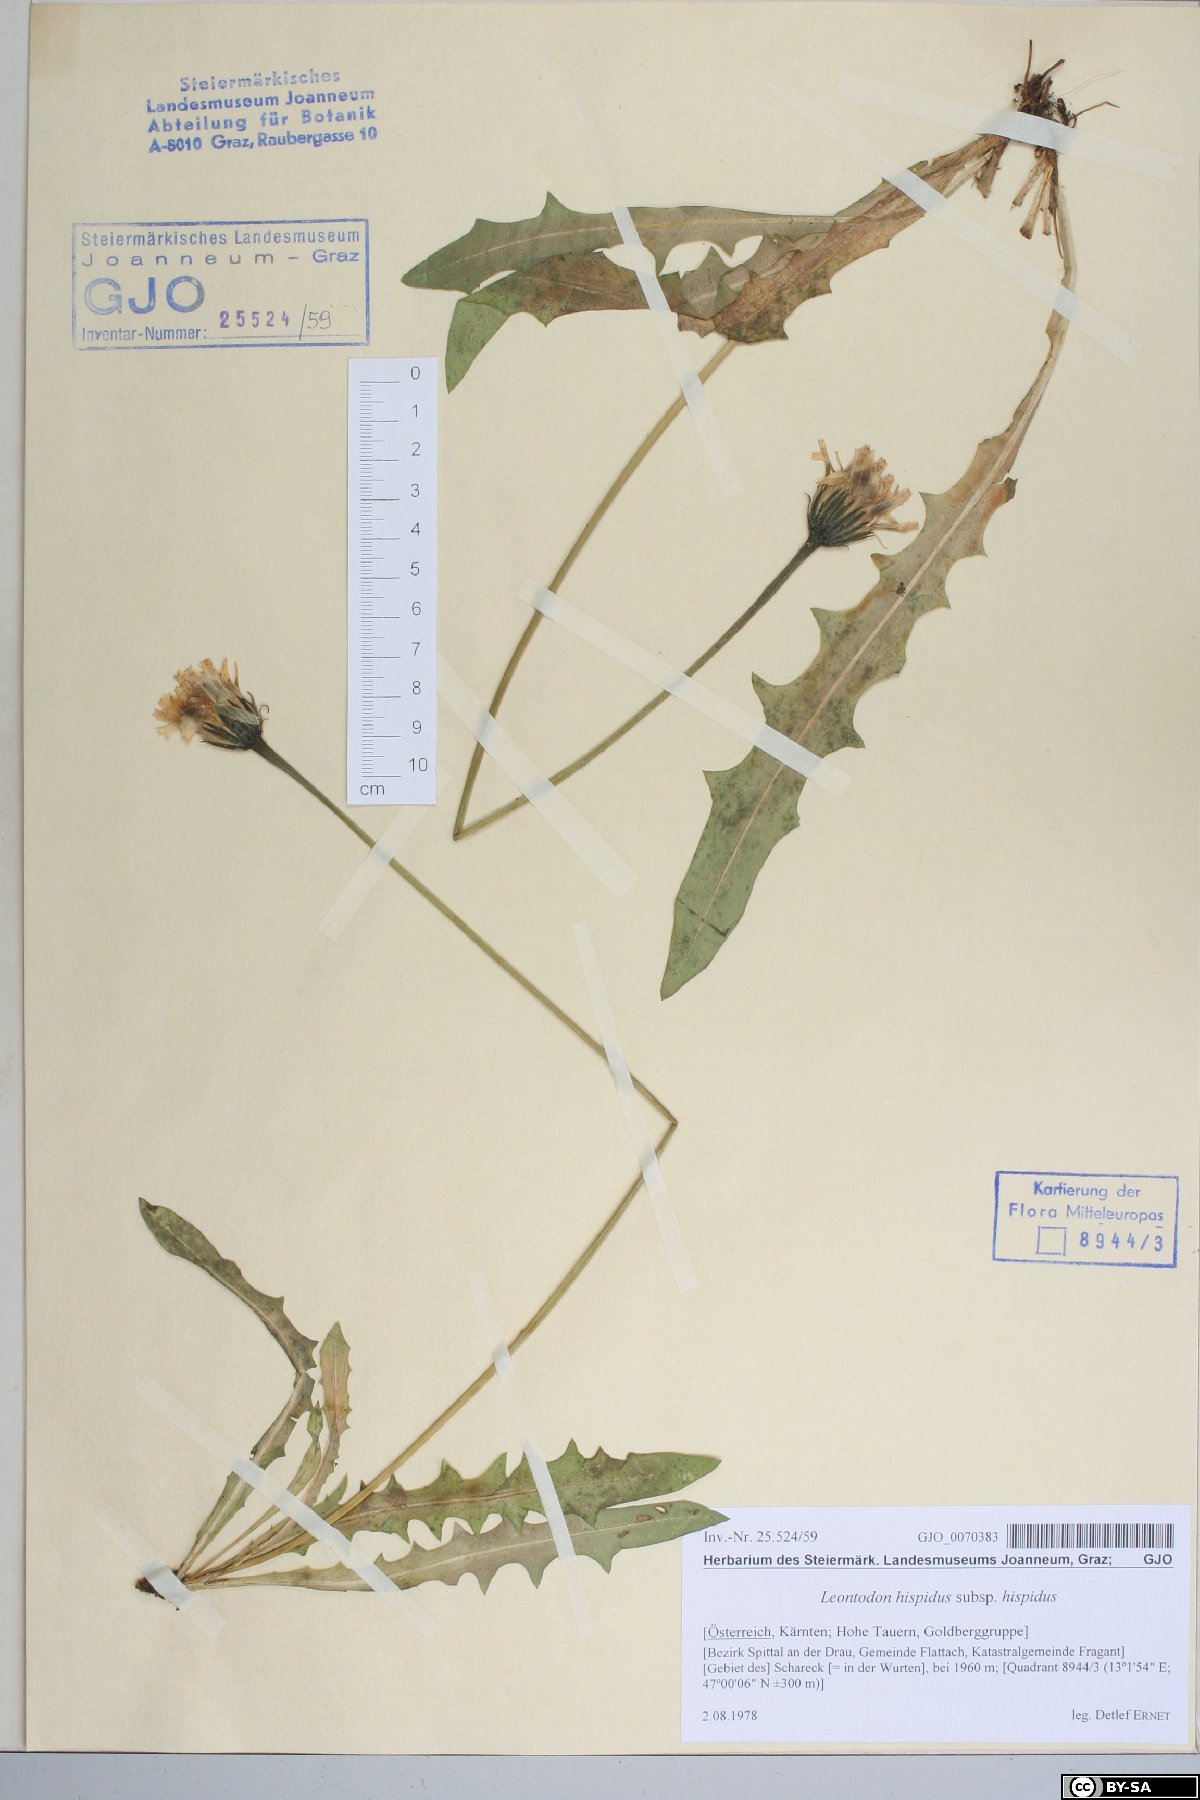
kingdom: Plantae
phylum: Tracheophyta
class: Magnoliopsida
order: Asterales
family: Asteraceae
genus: Leontodon
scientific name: Leontodon hispidus
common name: Rough hawkbit
